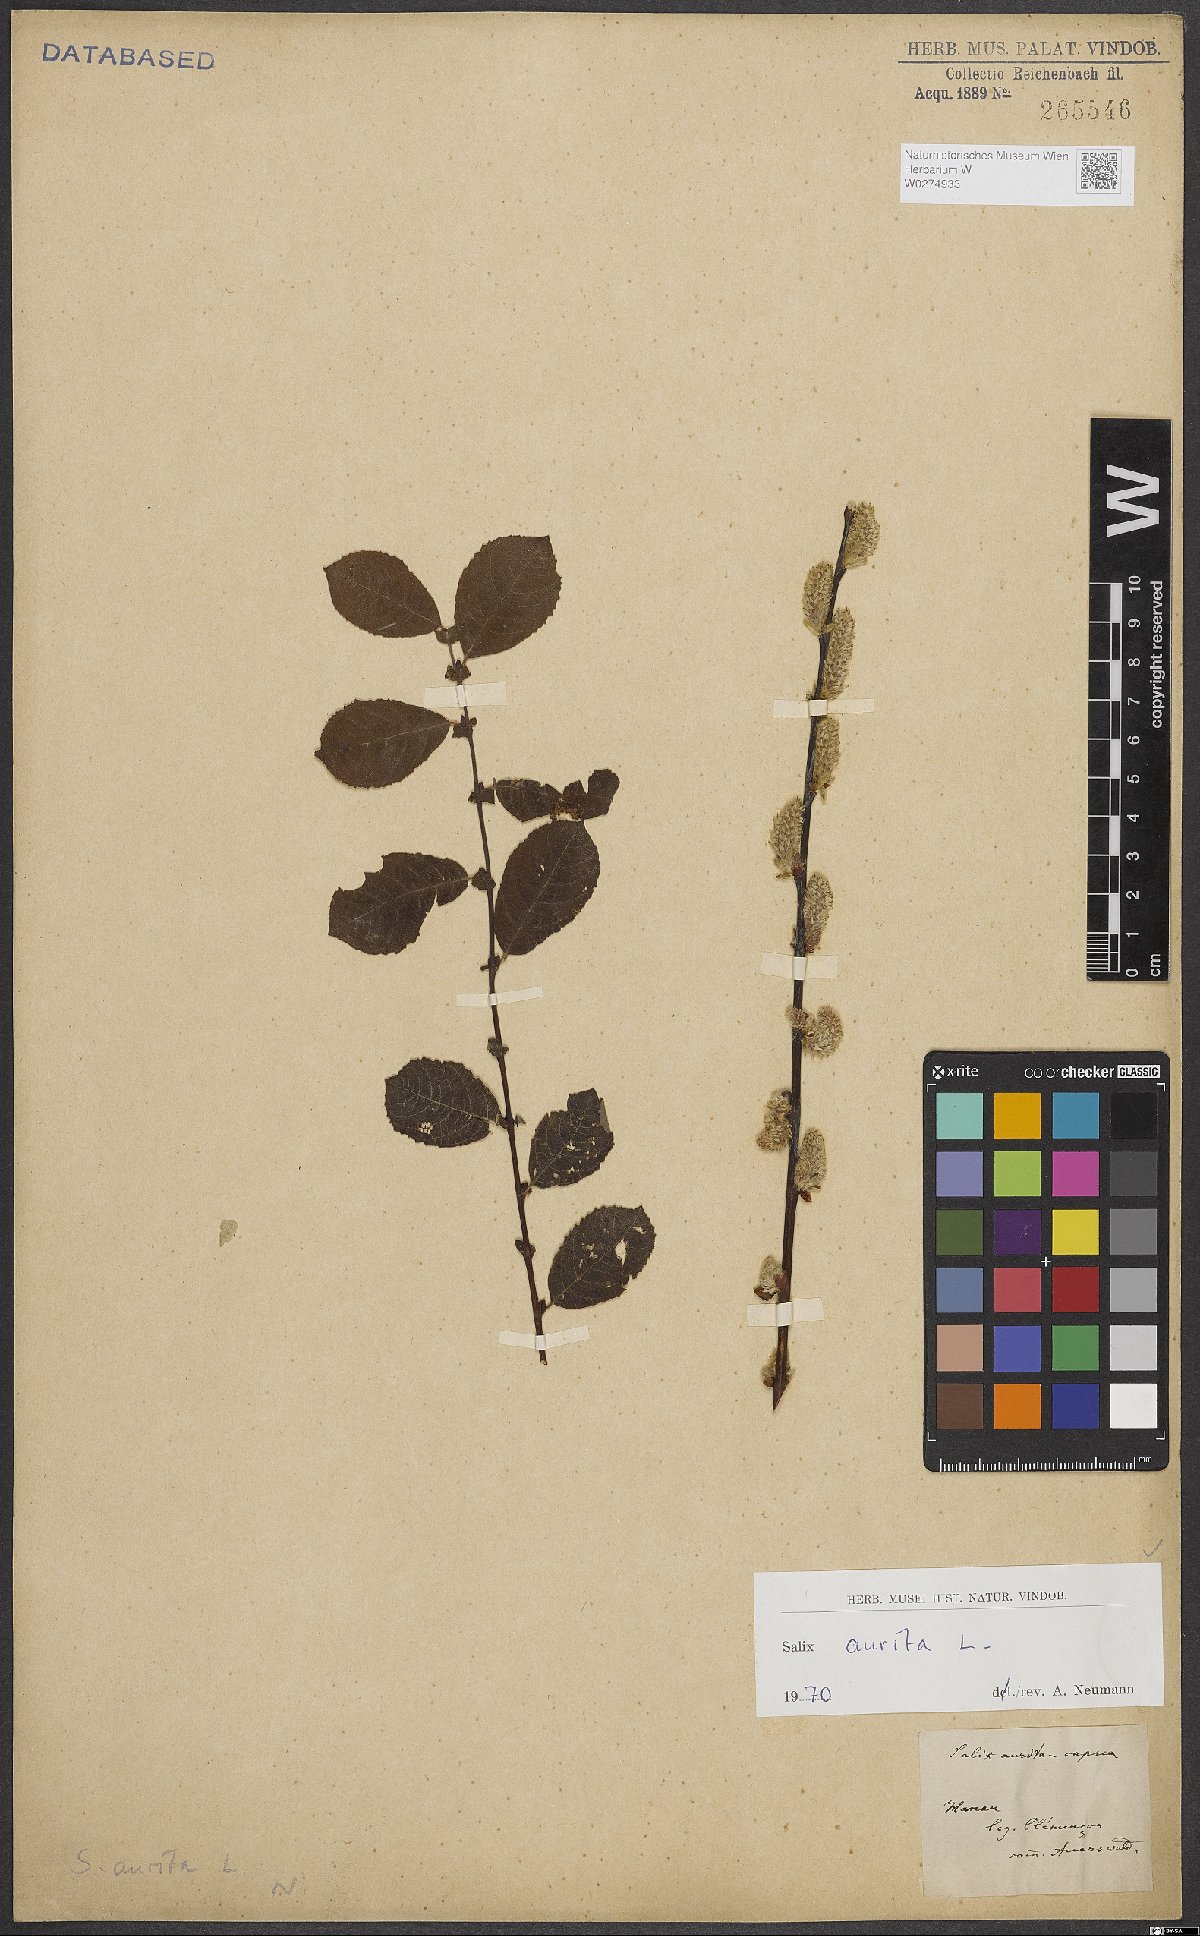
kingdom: Plantae
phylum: Tracheophyta
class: Magnoliopsida
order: Malpighiales
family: Salicaceae
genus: Salix
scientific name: Salix aurita
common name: Eared willow
